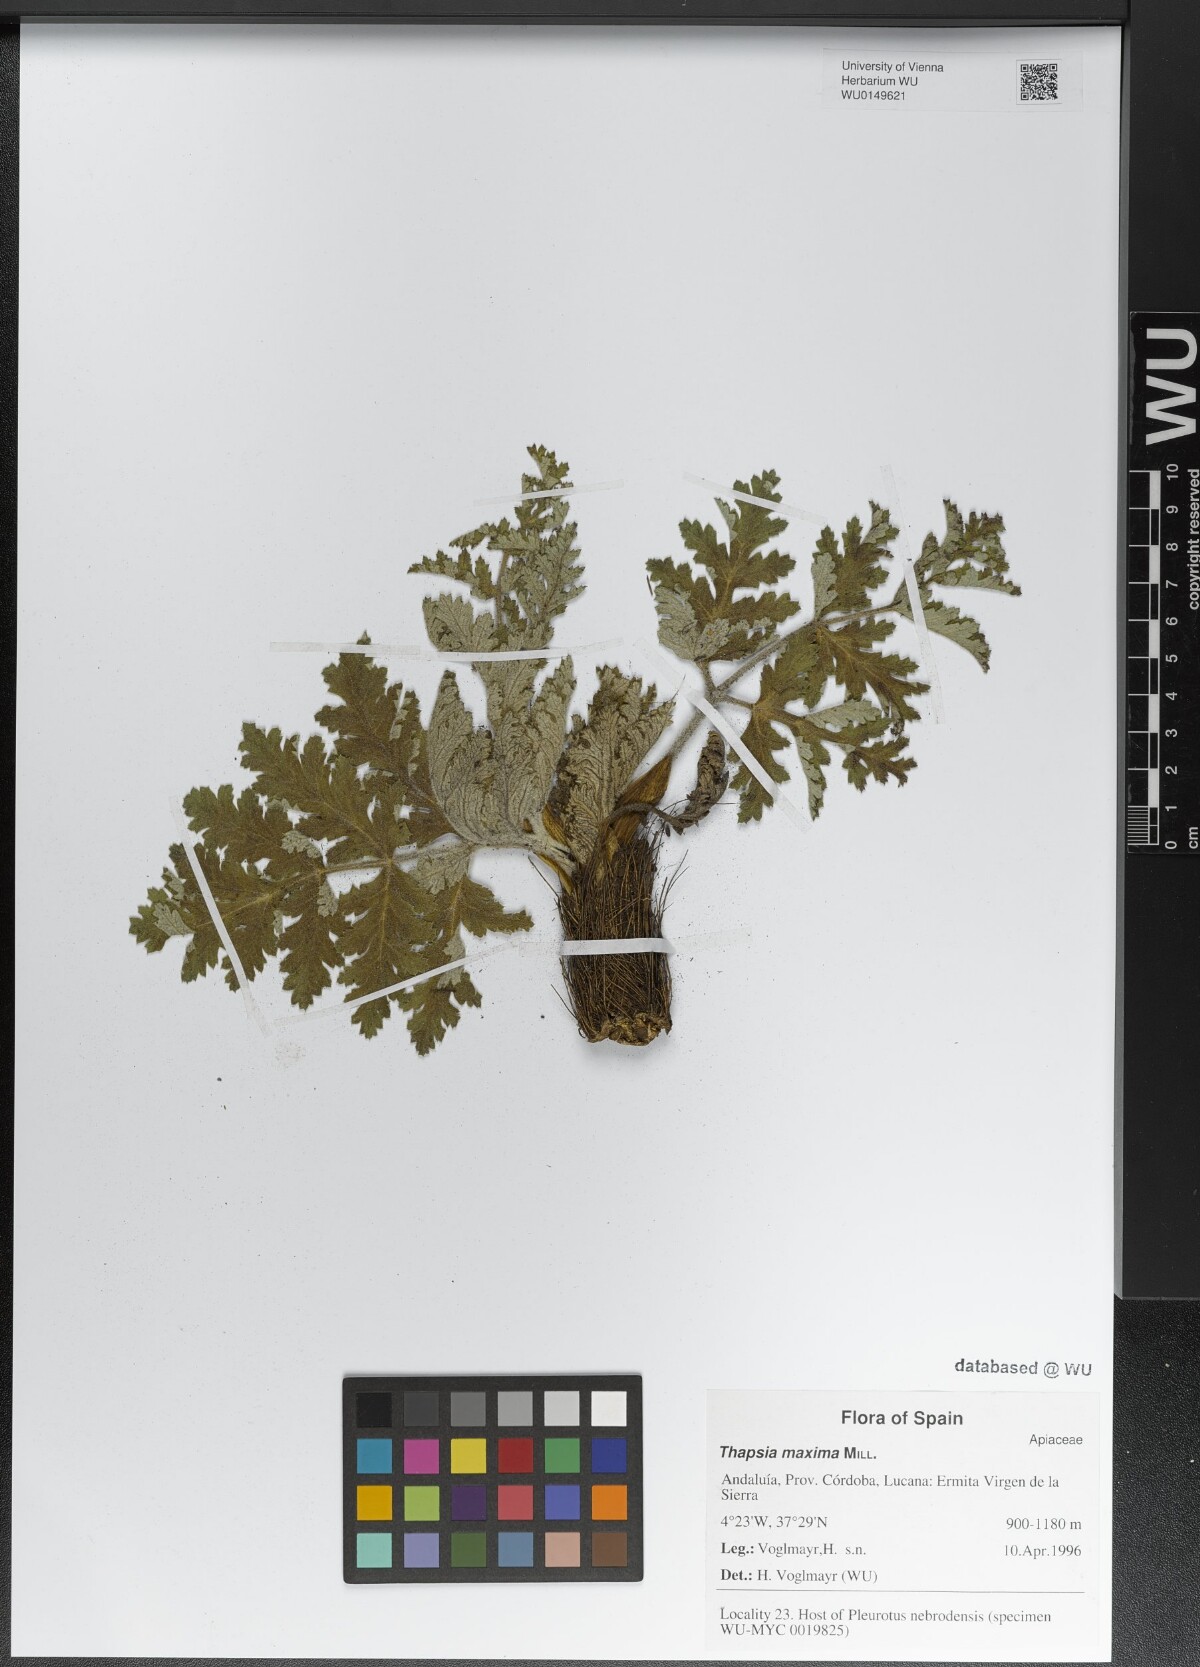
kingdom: Plantae
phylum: Tracheophyta
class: Magnoliopsida
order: Apiales
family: Apiaceae
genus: Thapsia
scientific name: Thapsia villosa
